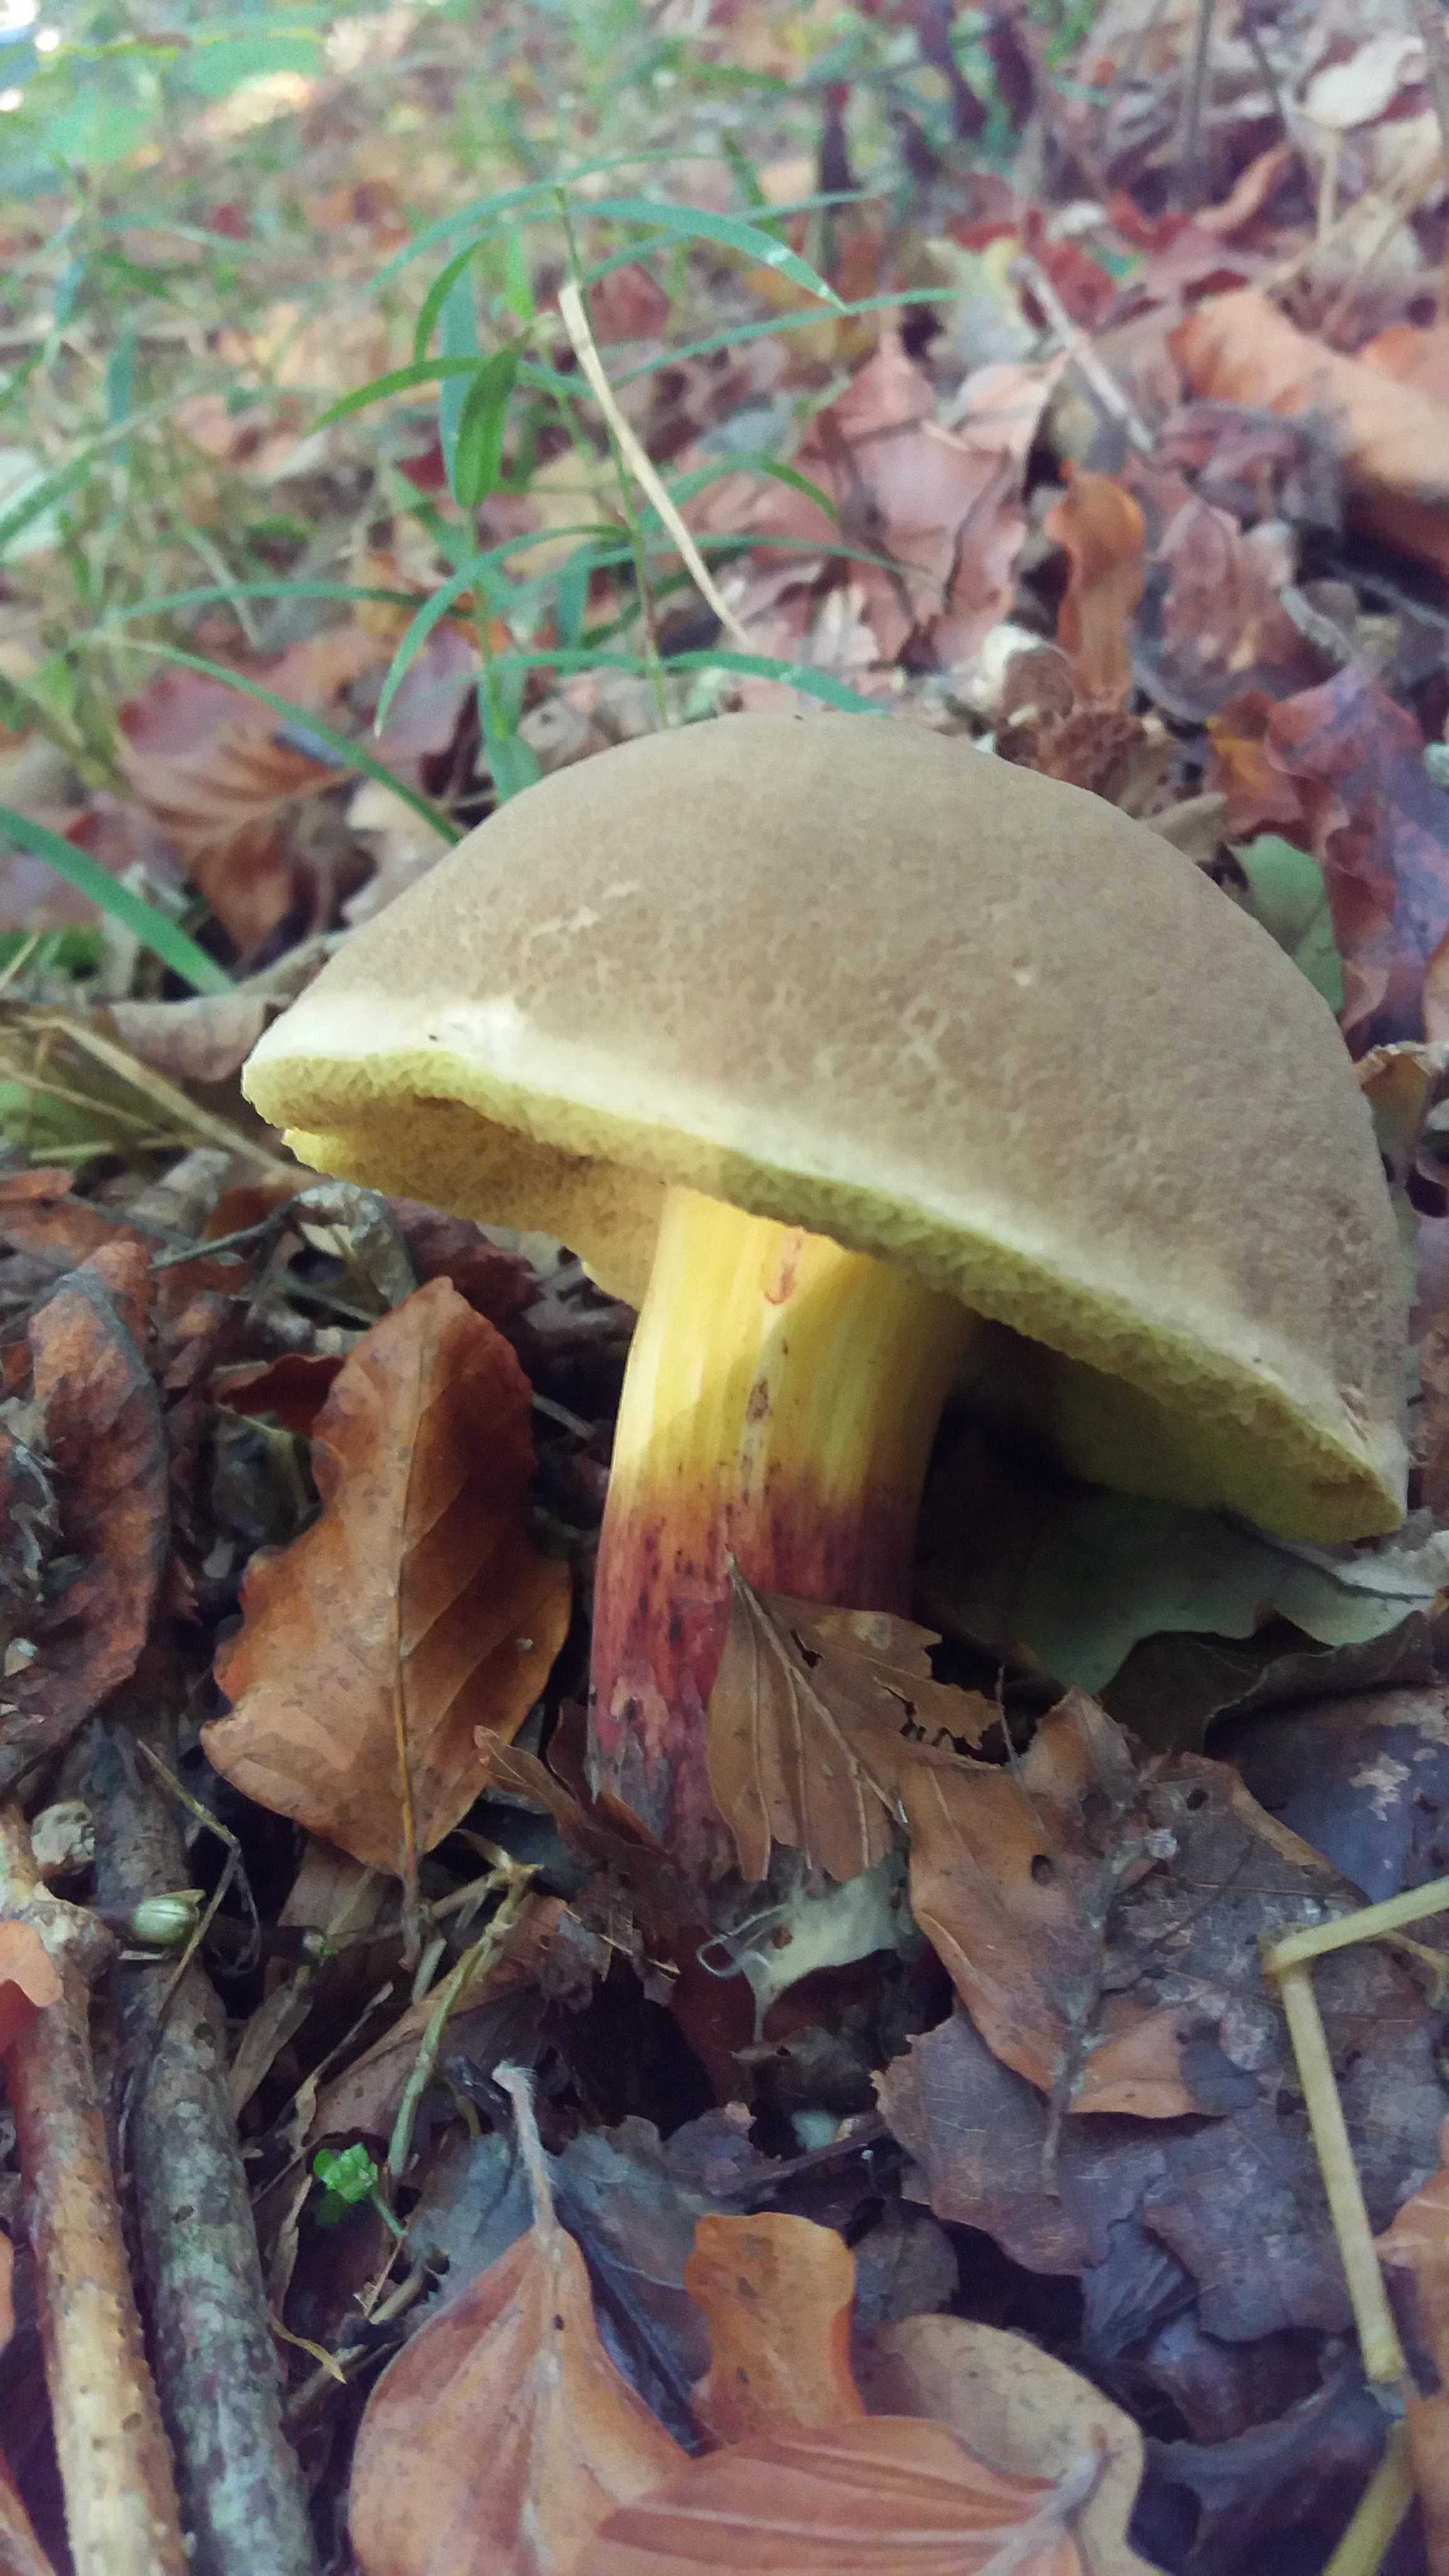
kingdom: Fungi
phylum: Basidiomycota
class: Agaricomycetes
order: Boletales
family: Boletaceae
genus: Xerocomellus
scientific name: Xerocomellus
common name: dværgrørhat
